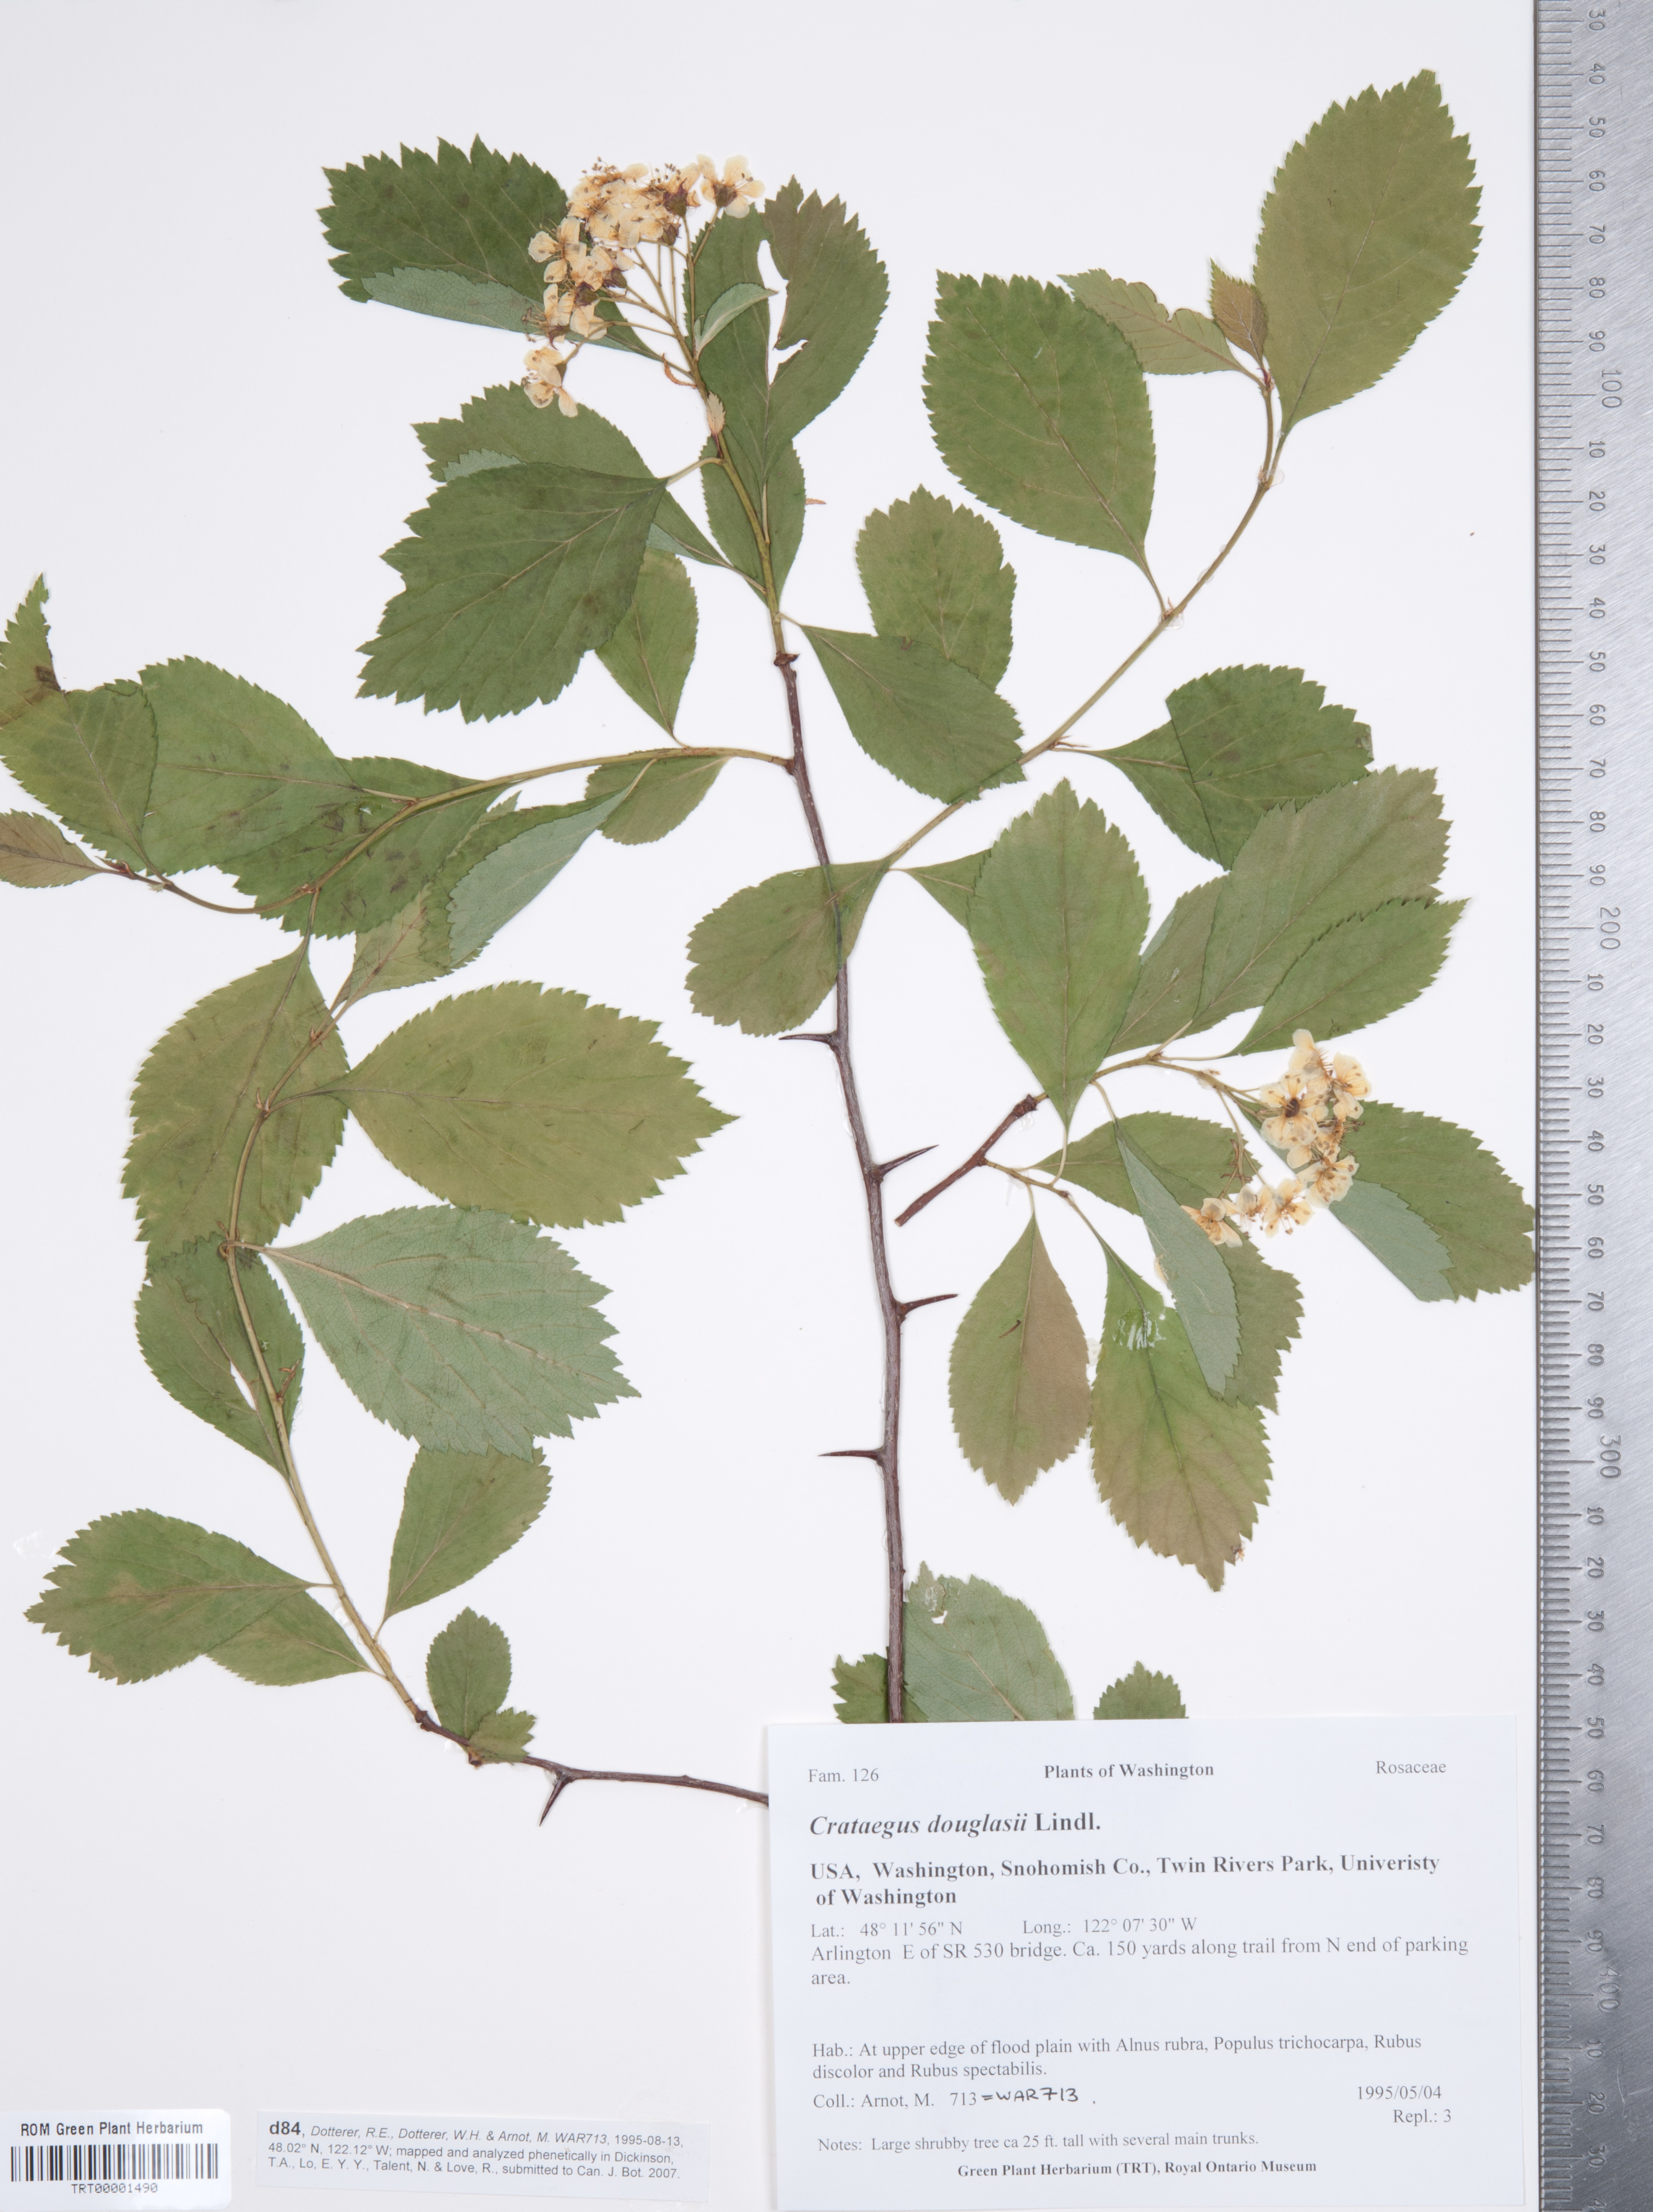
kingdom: Plantae
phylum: Tracheophyta
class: Magnoliopsida
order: Rosales
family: Rosaceae
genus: Crataegus
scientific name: Crataegus douglasii
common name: Black hawthorn
